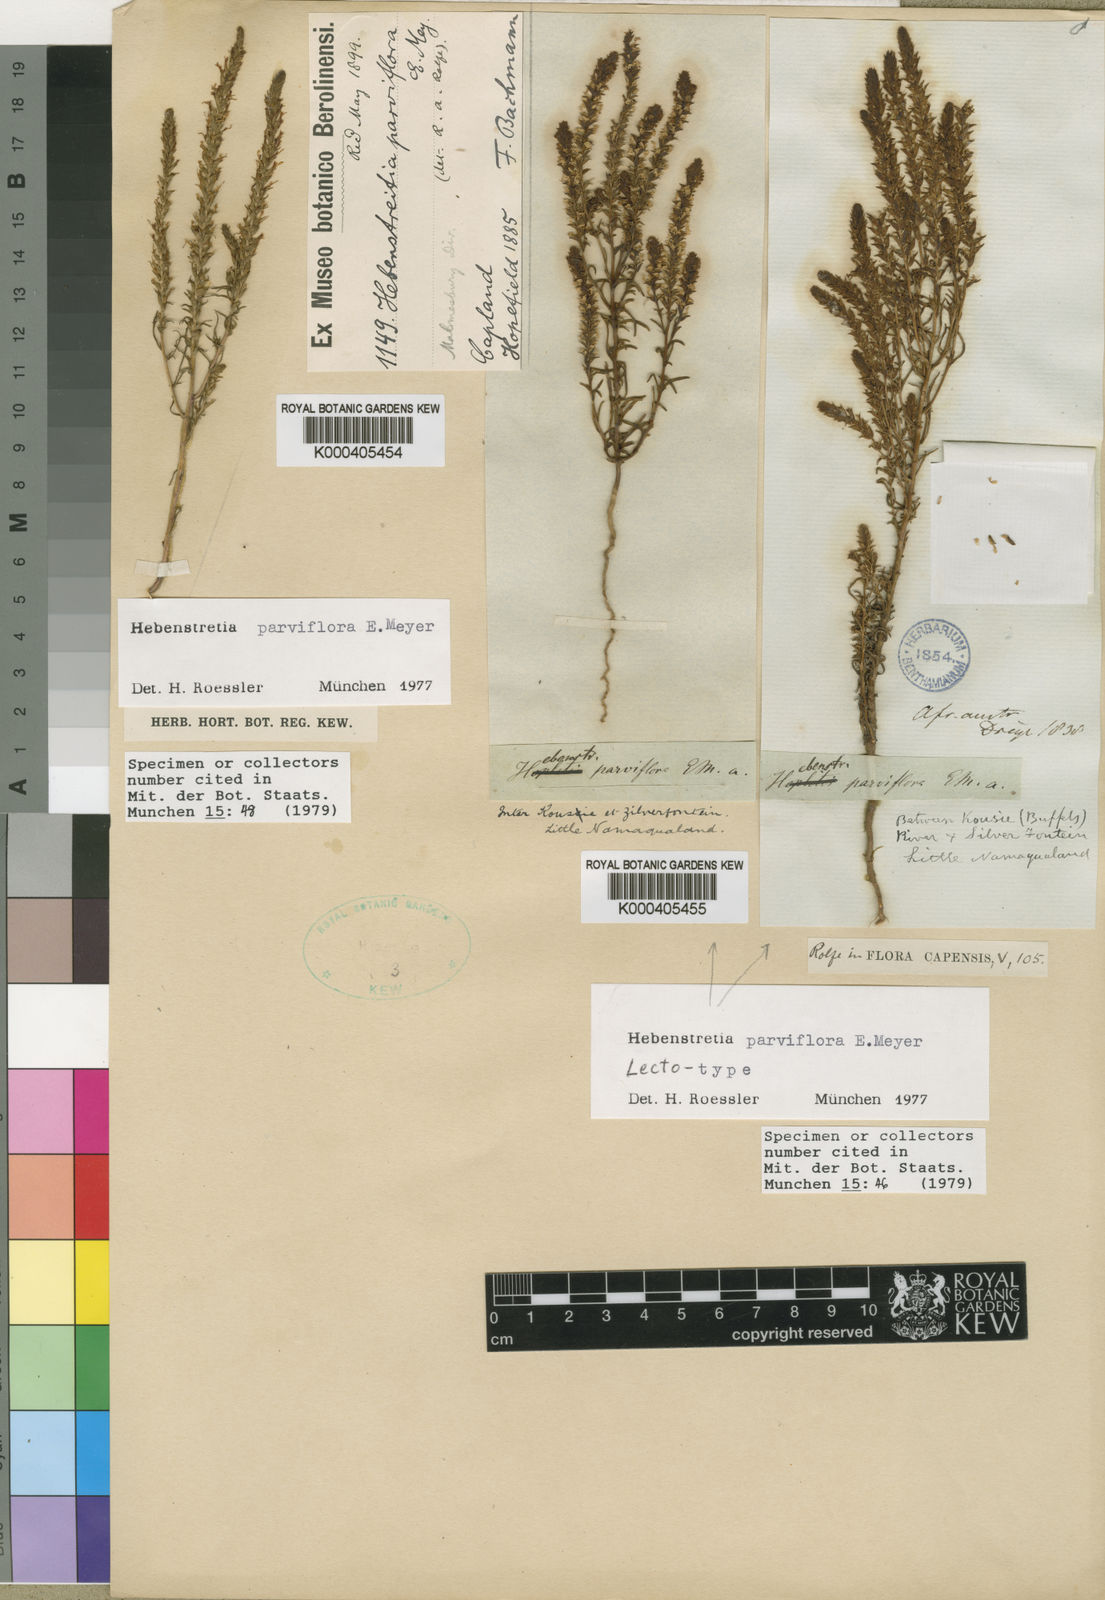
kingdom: Plantae
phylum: Tracheophyta
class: Magnoliopsida
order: Lamiales
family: Scrophulariaceae
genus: Hebenstretia
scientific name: Hebenstretia parviflora
